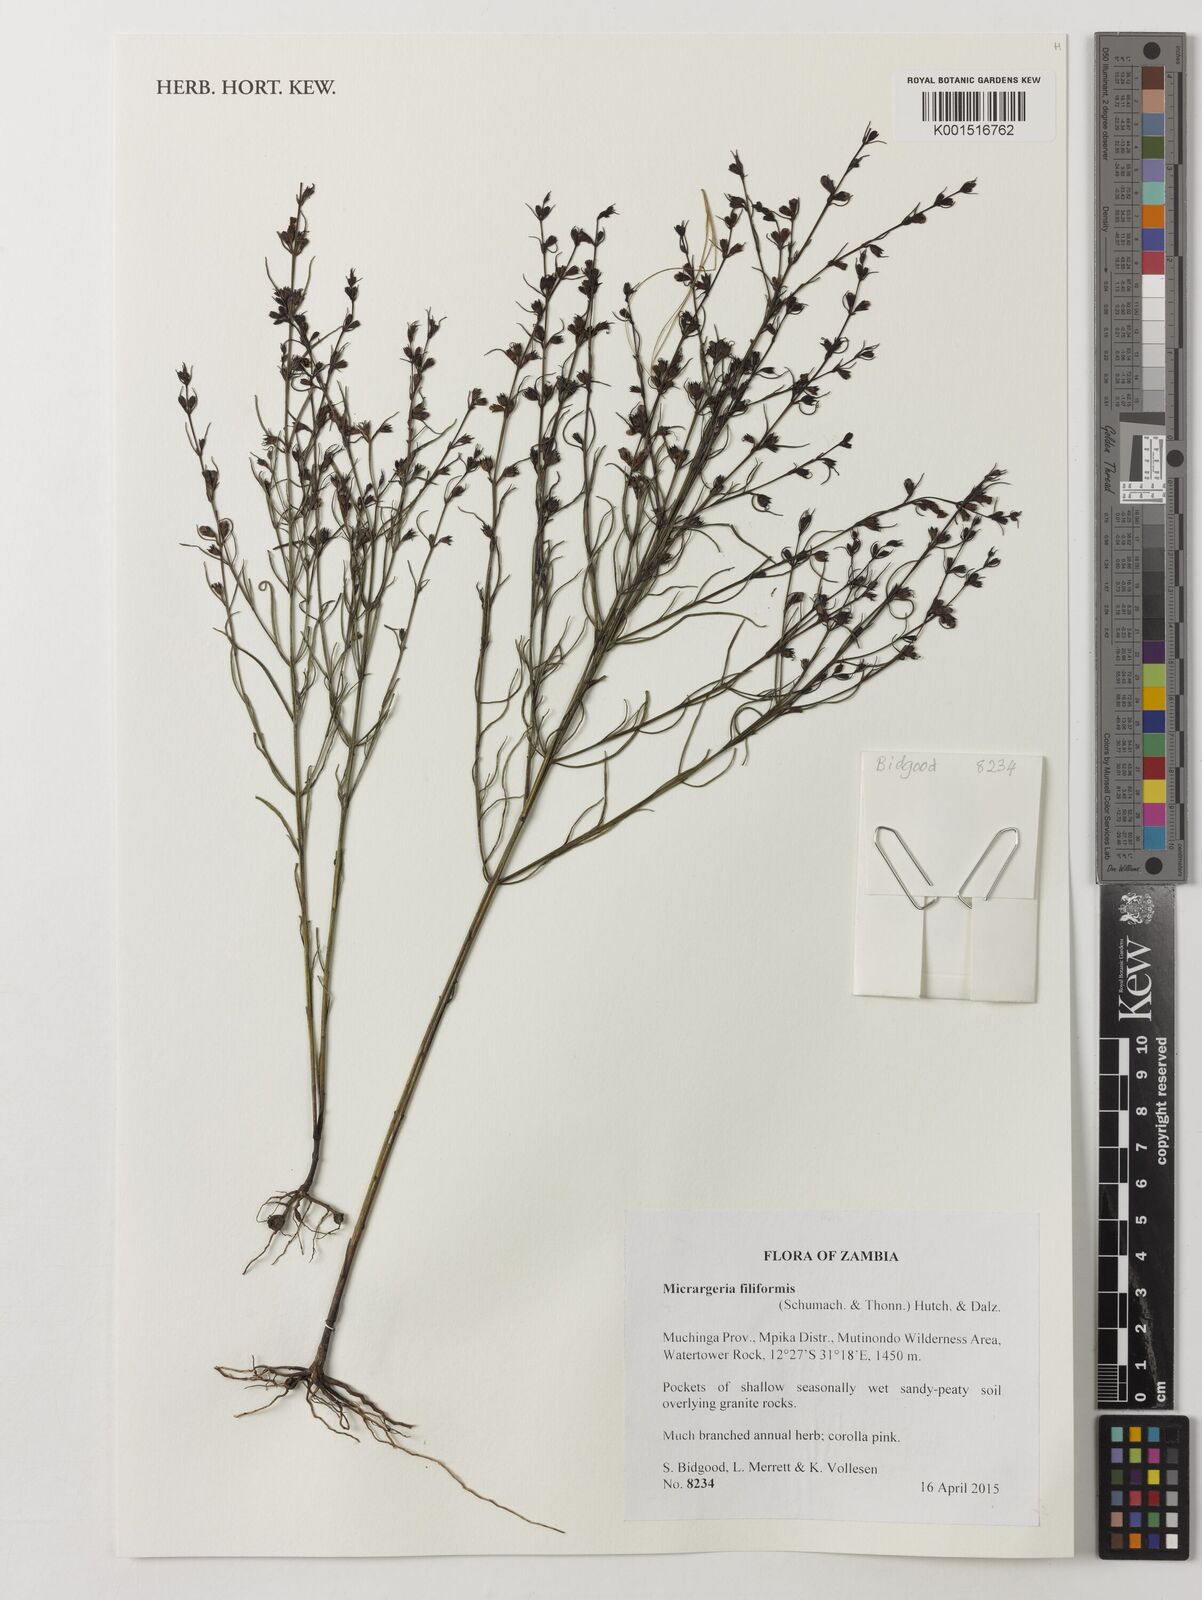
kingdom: Plantae
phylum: Tracheophyta
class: Magnoliopsida
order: Lamiales
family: Orobanchaceae
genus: Micrargeria
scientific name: Micrargeria filiformis
